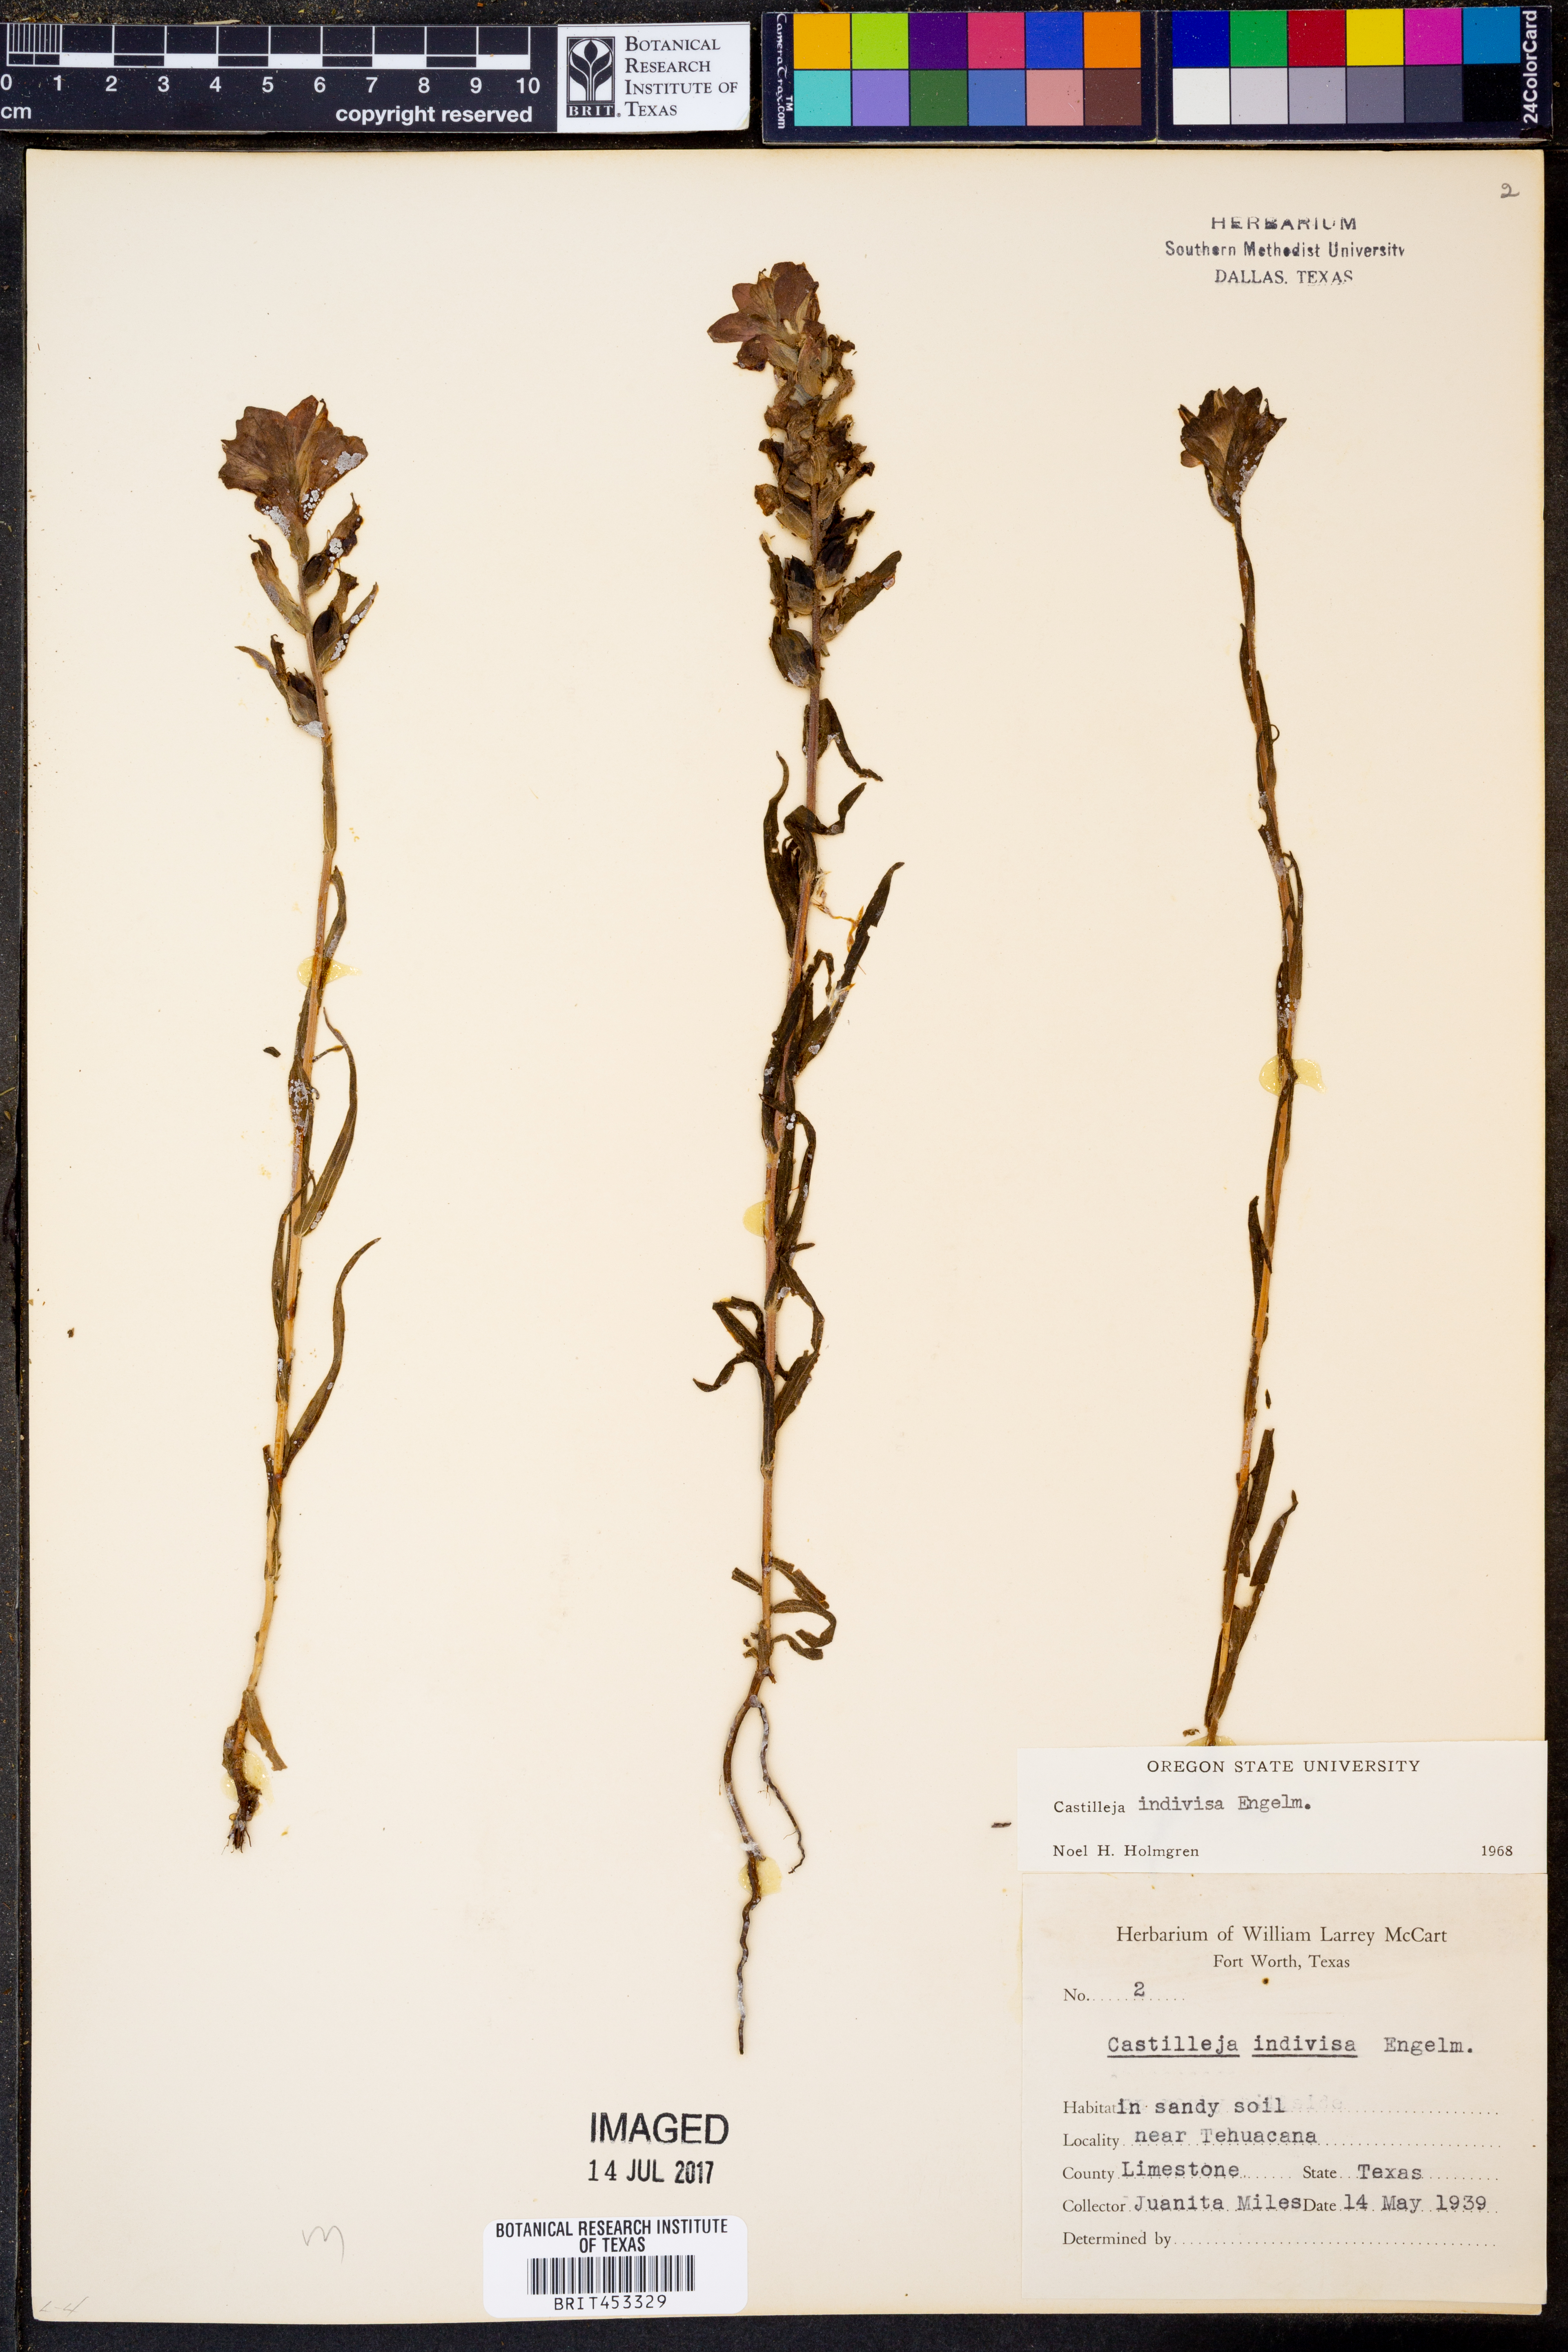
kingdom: Plantae
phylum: Tracheophyta
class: Magnoliopsida
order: Lamiales
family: Orobanchaceae
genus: Castilleja
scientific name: Castilleja indivisa
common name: Texas paintbrush
